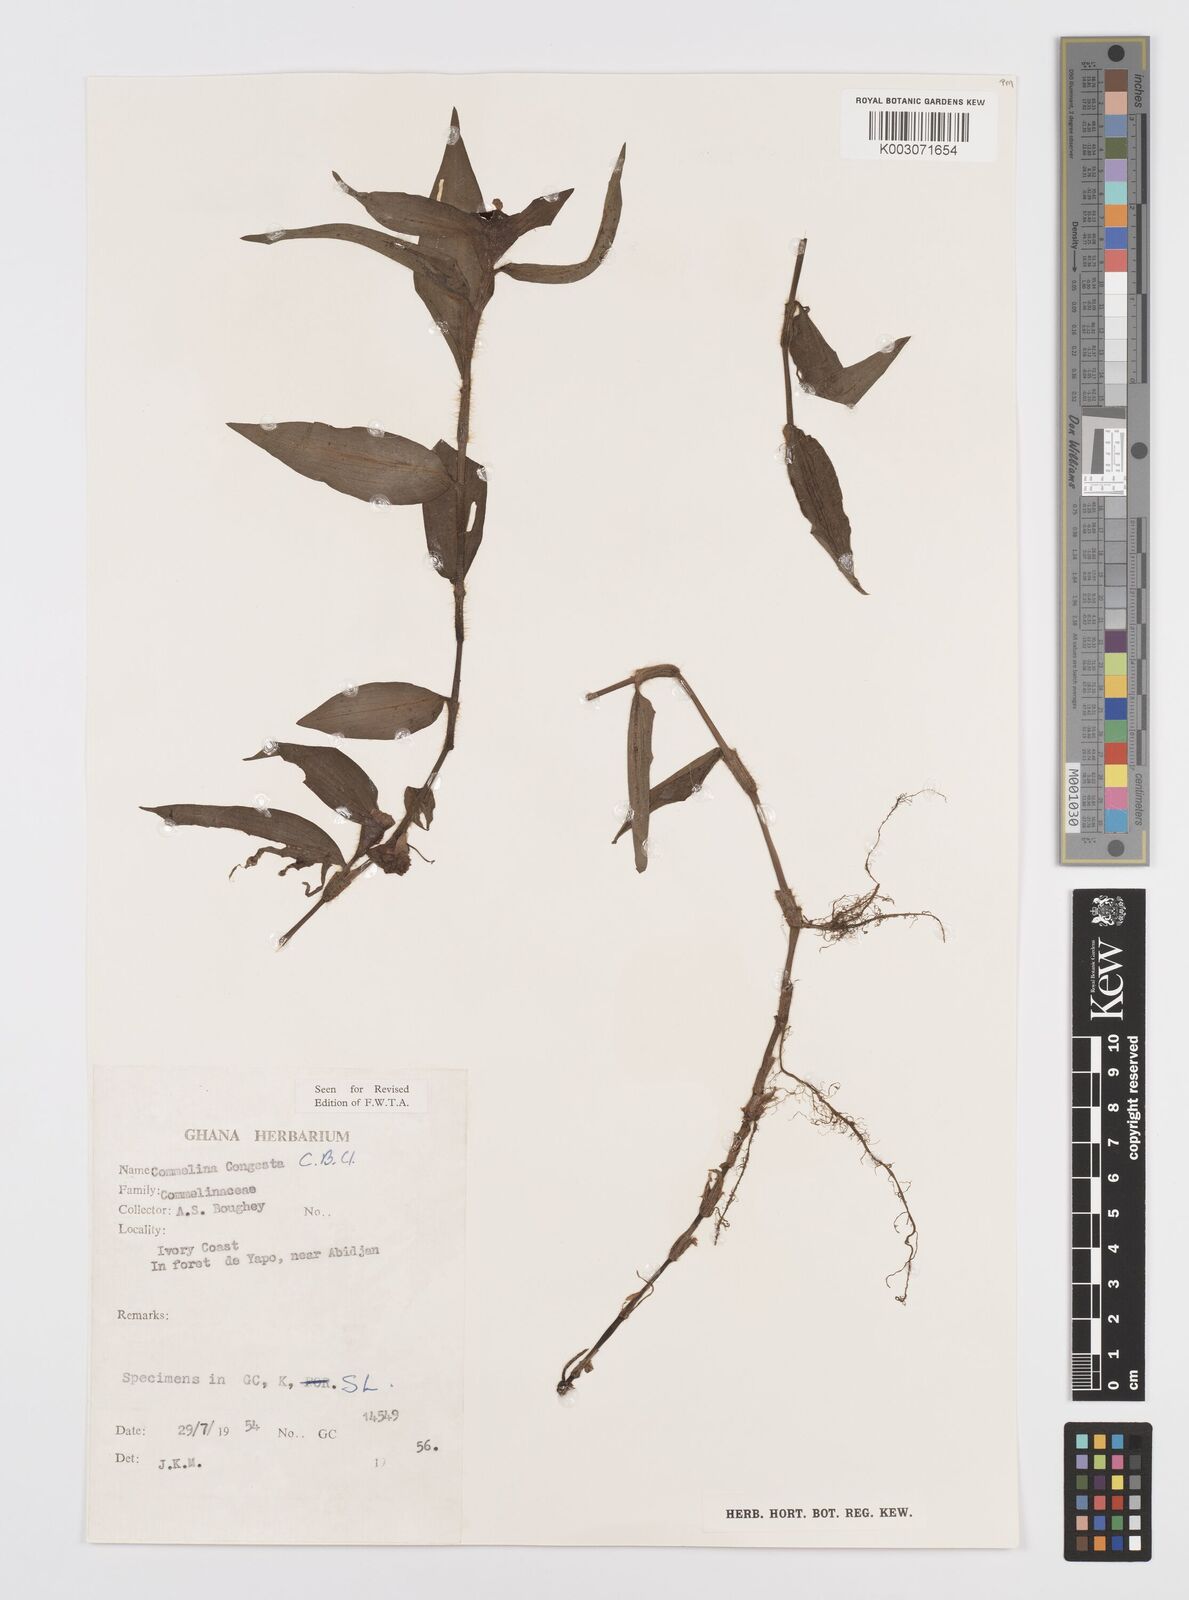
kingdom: Plantae
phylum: Tracheophyta
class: Liliopsida
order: Commelinales
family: Commelinaceae
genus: Commelina
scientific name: Commelina congesta
